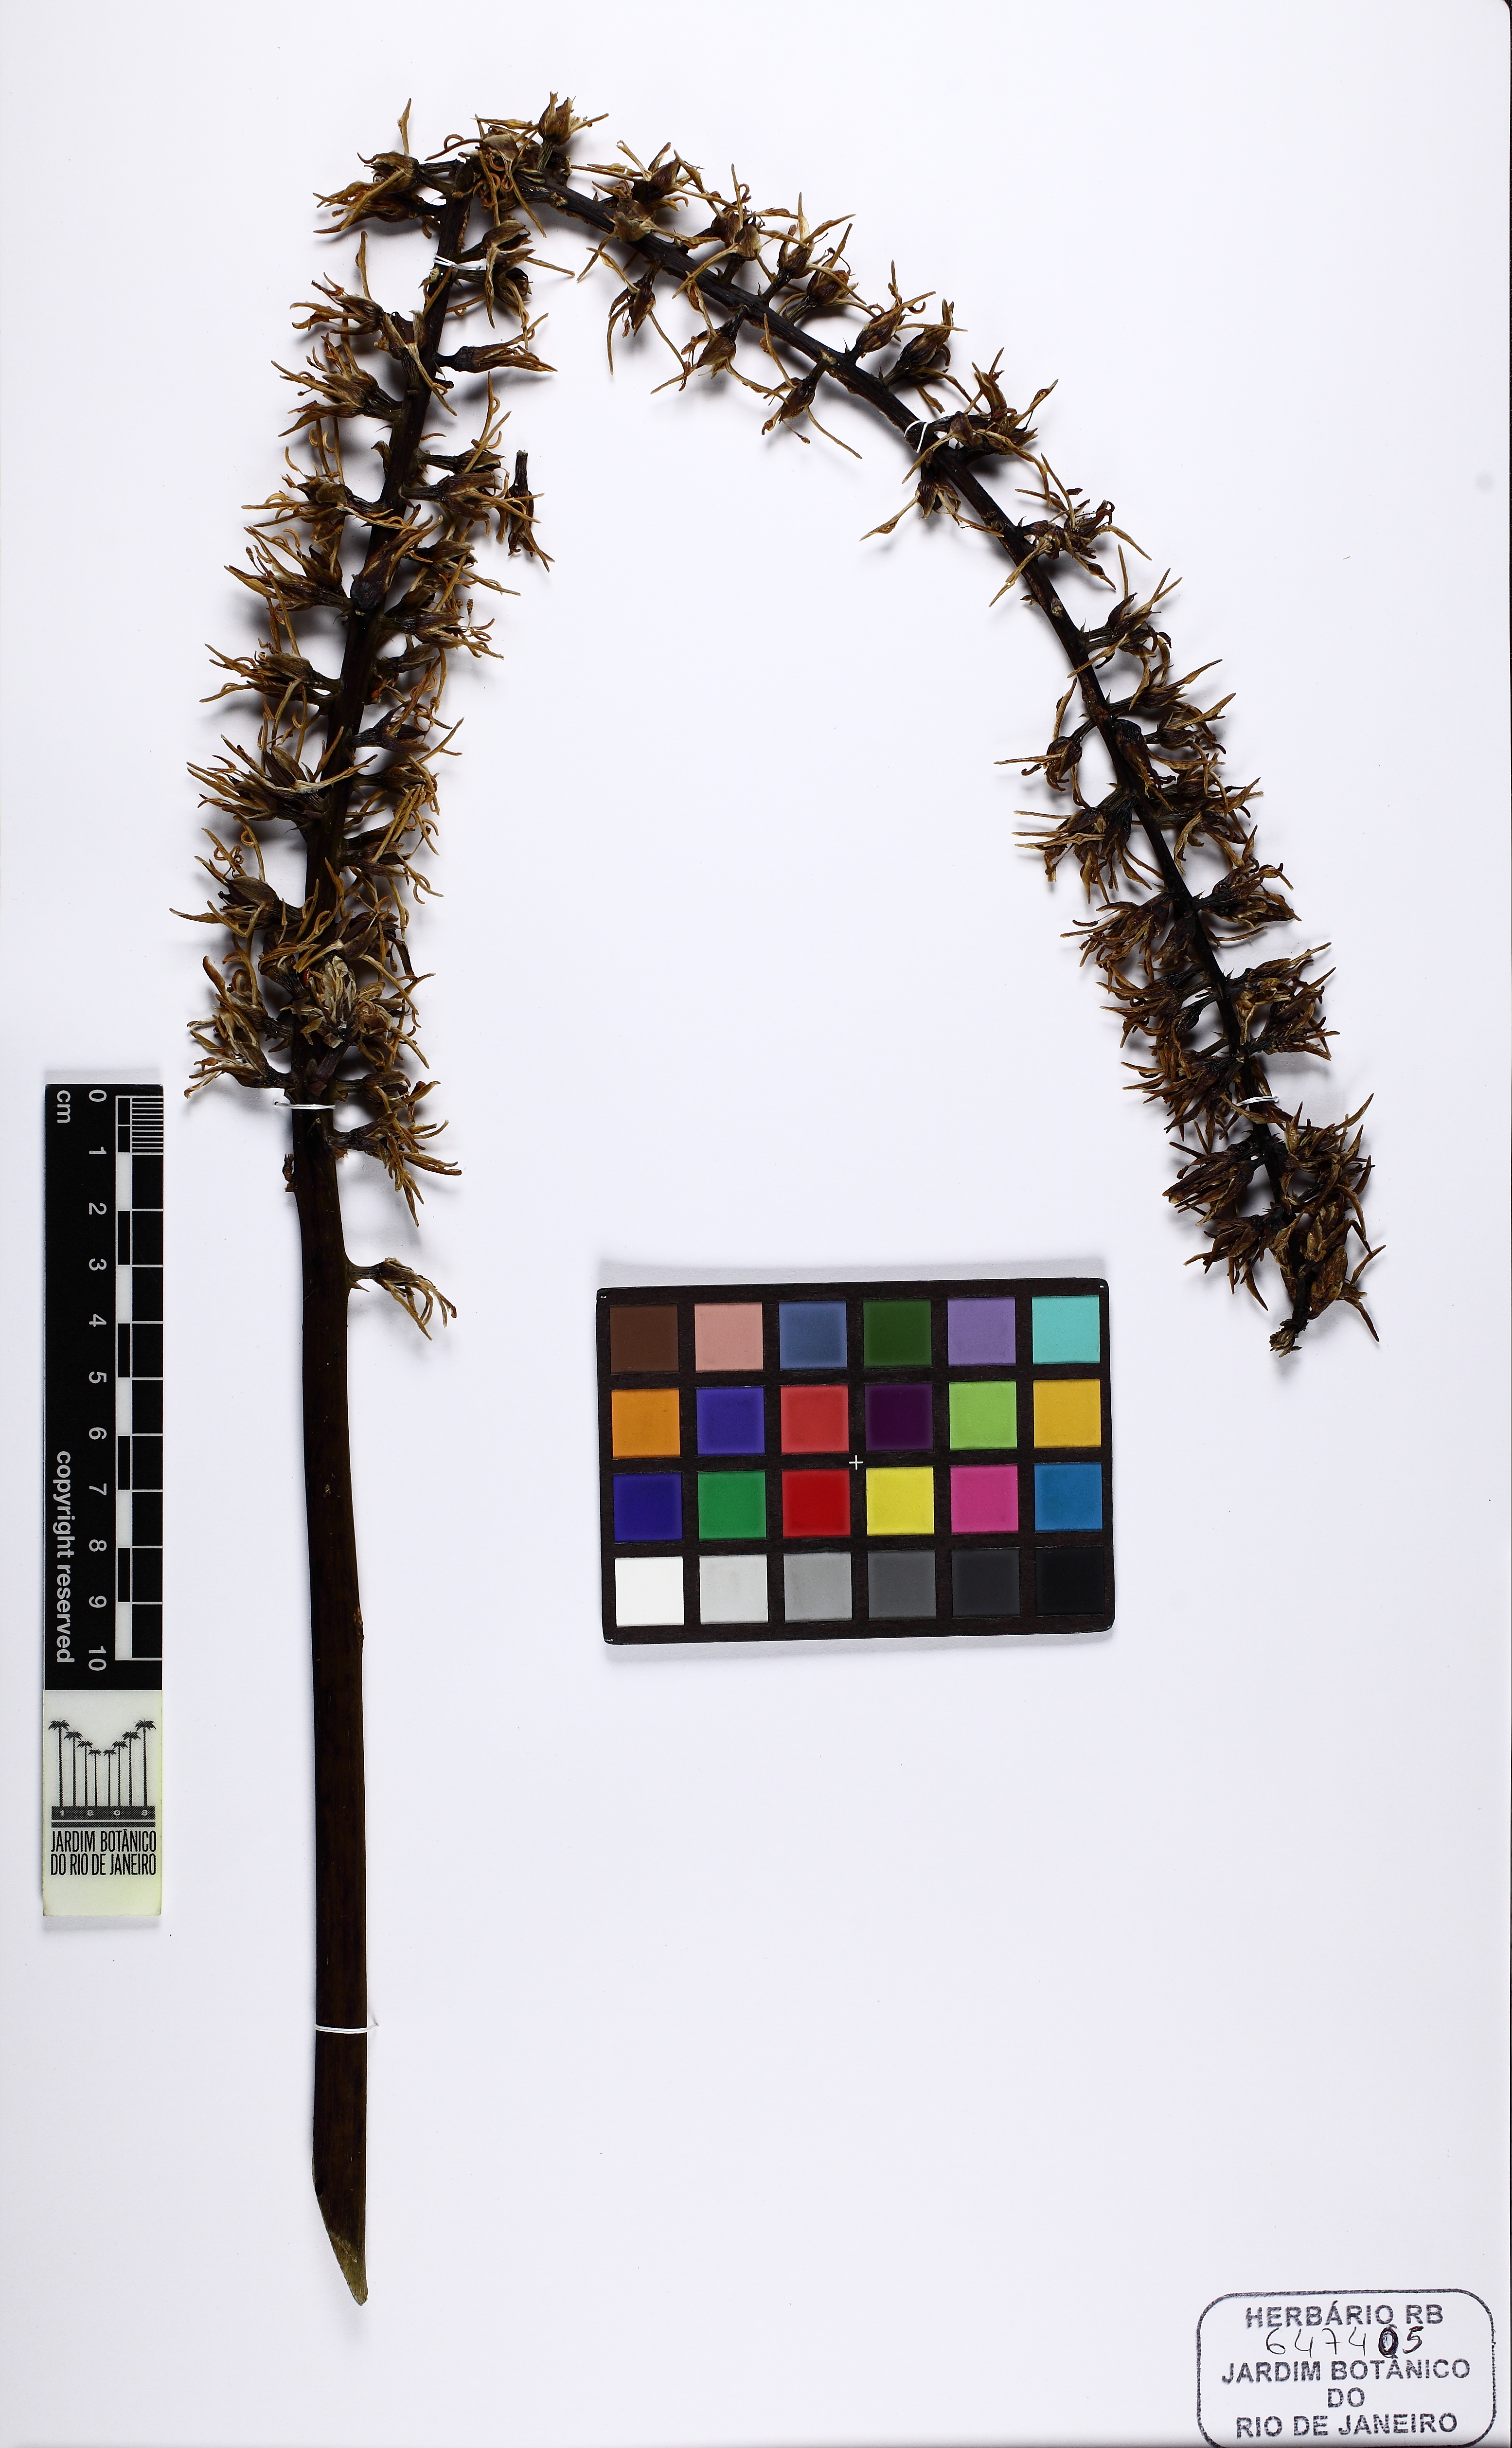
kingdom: Plantae
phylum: Tracheophyta
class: Liliopsida
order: Poales
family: Bromeliaceae
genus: Encholirium
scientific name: Encholirium horridum
